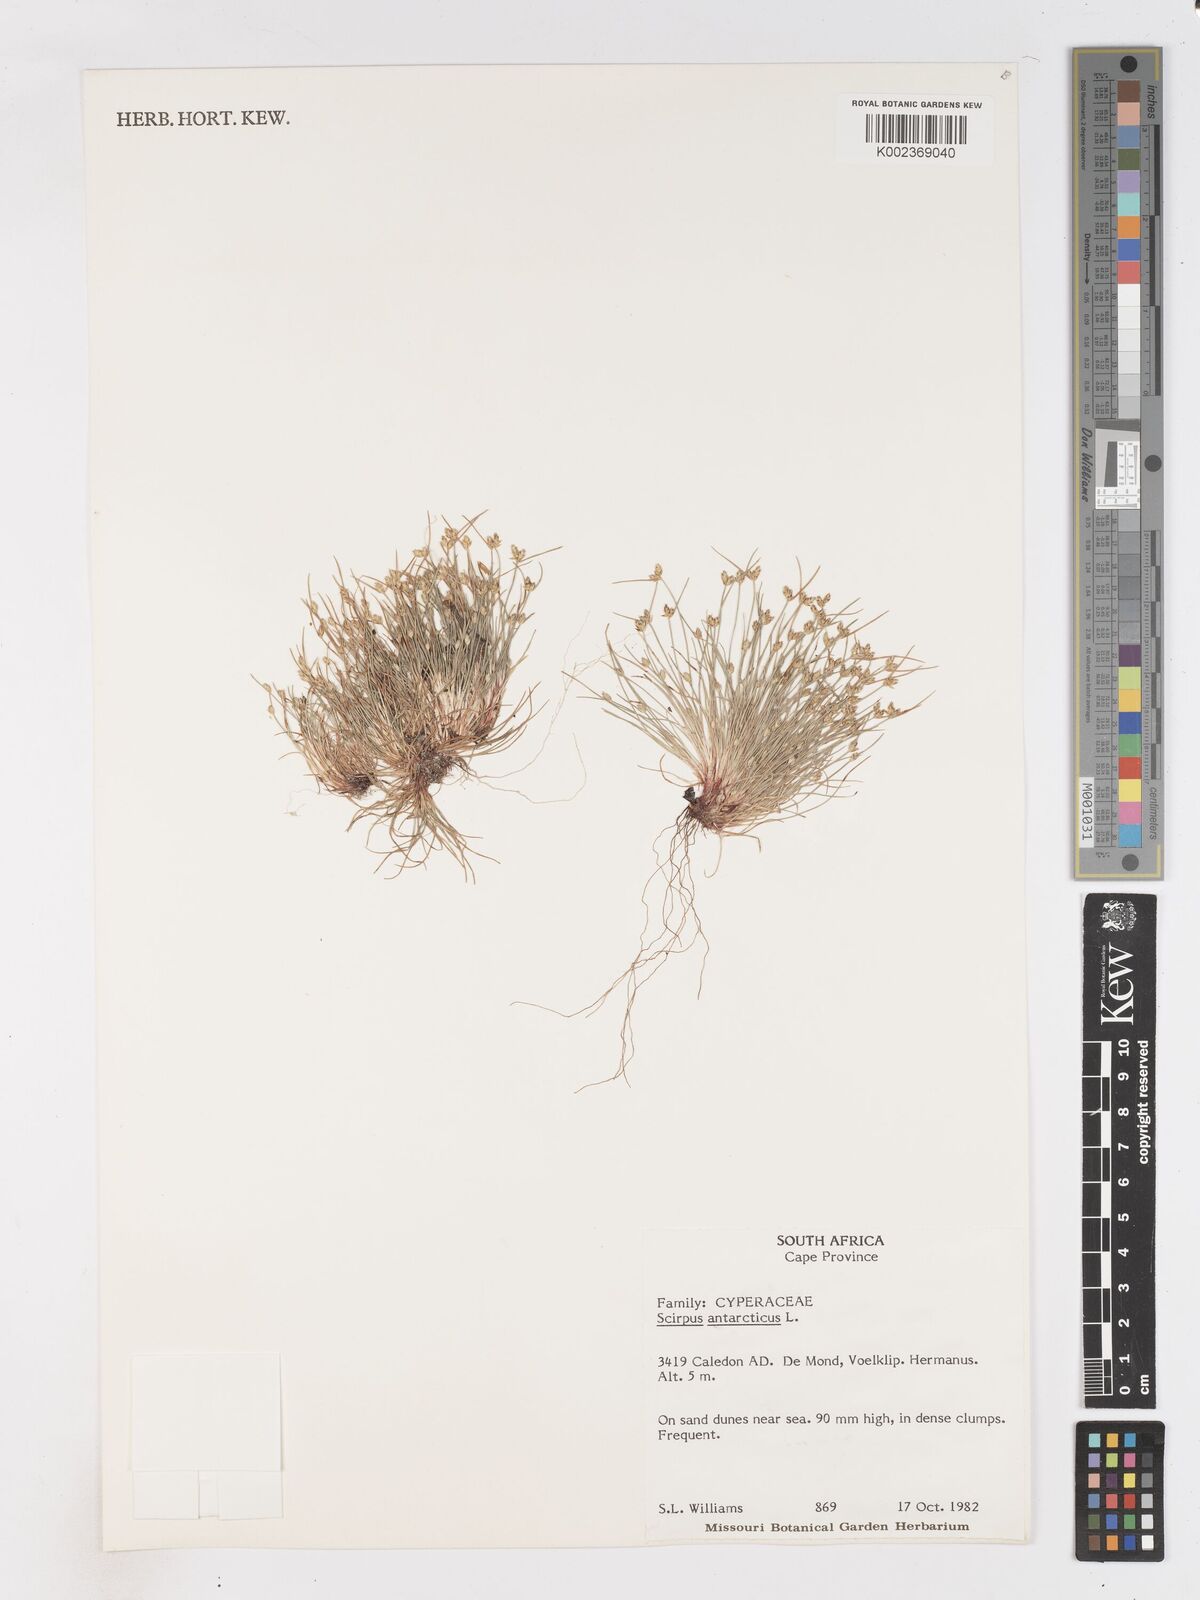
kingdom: Plantae
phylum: Tracheophyta
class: Liliopsida
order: Poales
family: Cyperaceae
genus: Isolepis
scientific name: Isolepis diabolica
